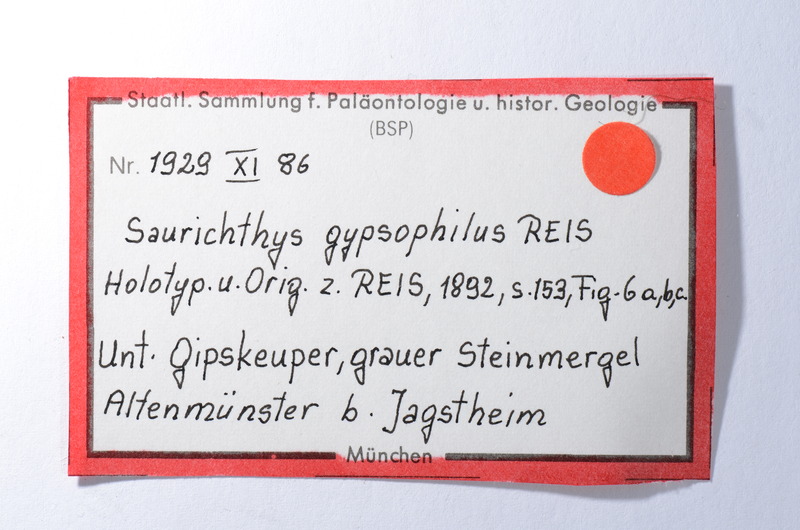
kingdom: Animalia
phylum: Chordata
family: Saurichthyidae
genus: Saurichthys
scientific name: Saurichthys
